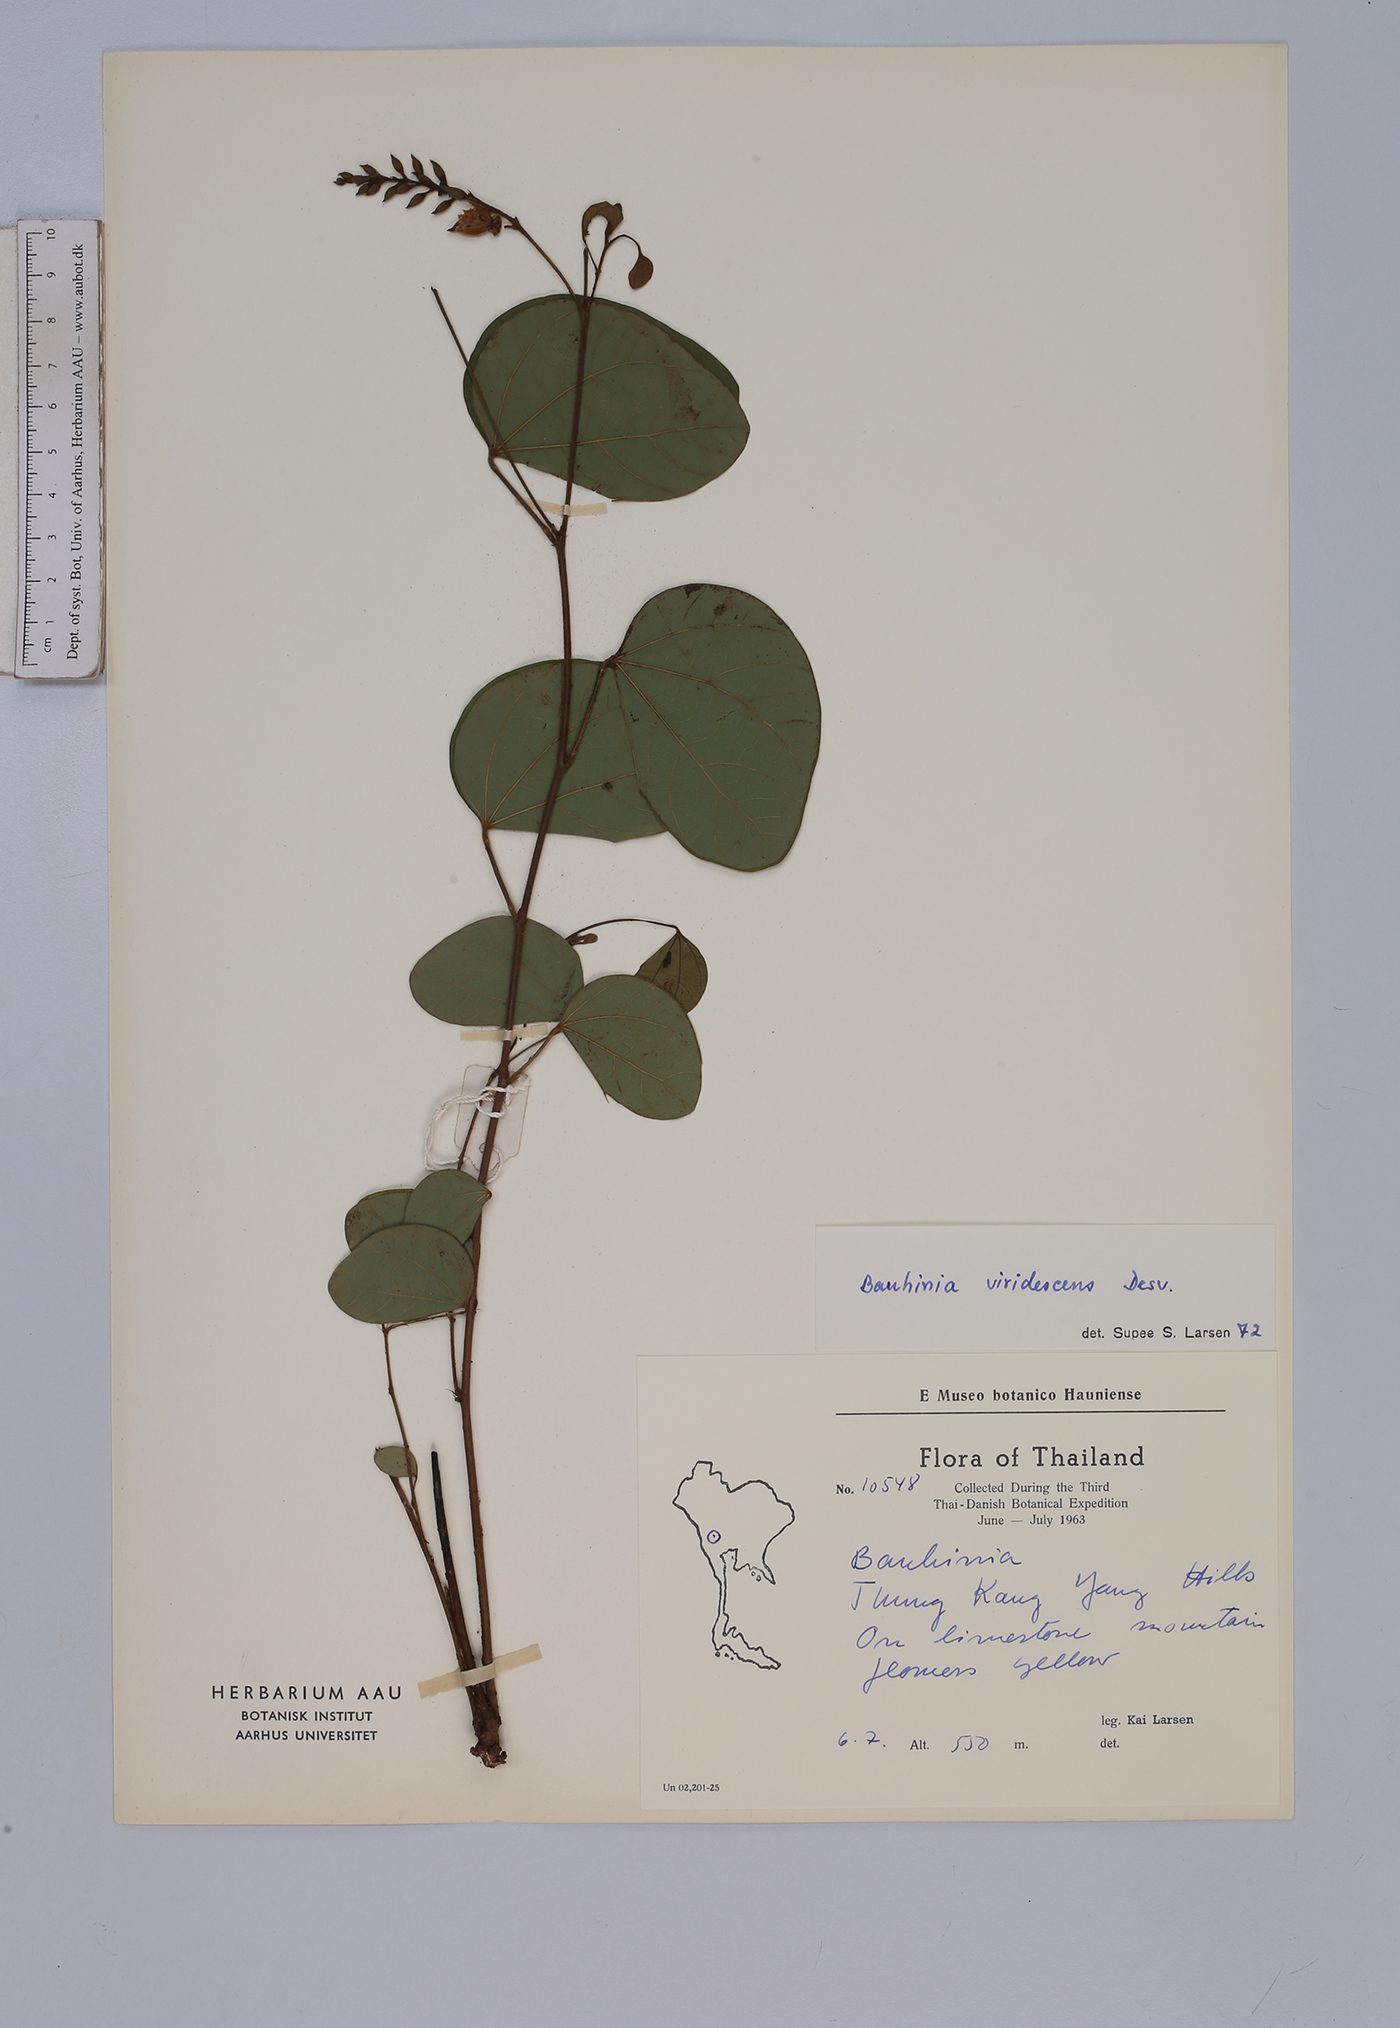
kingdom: Plantae
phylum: Tracheophyta
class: Magnoliopsida
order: Fabales
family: Fabaceae
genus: Bauhinia
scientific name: Bauhinia viridescens
